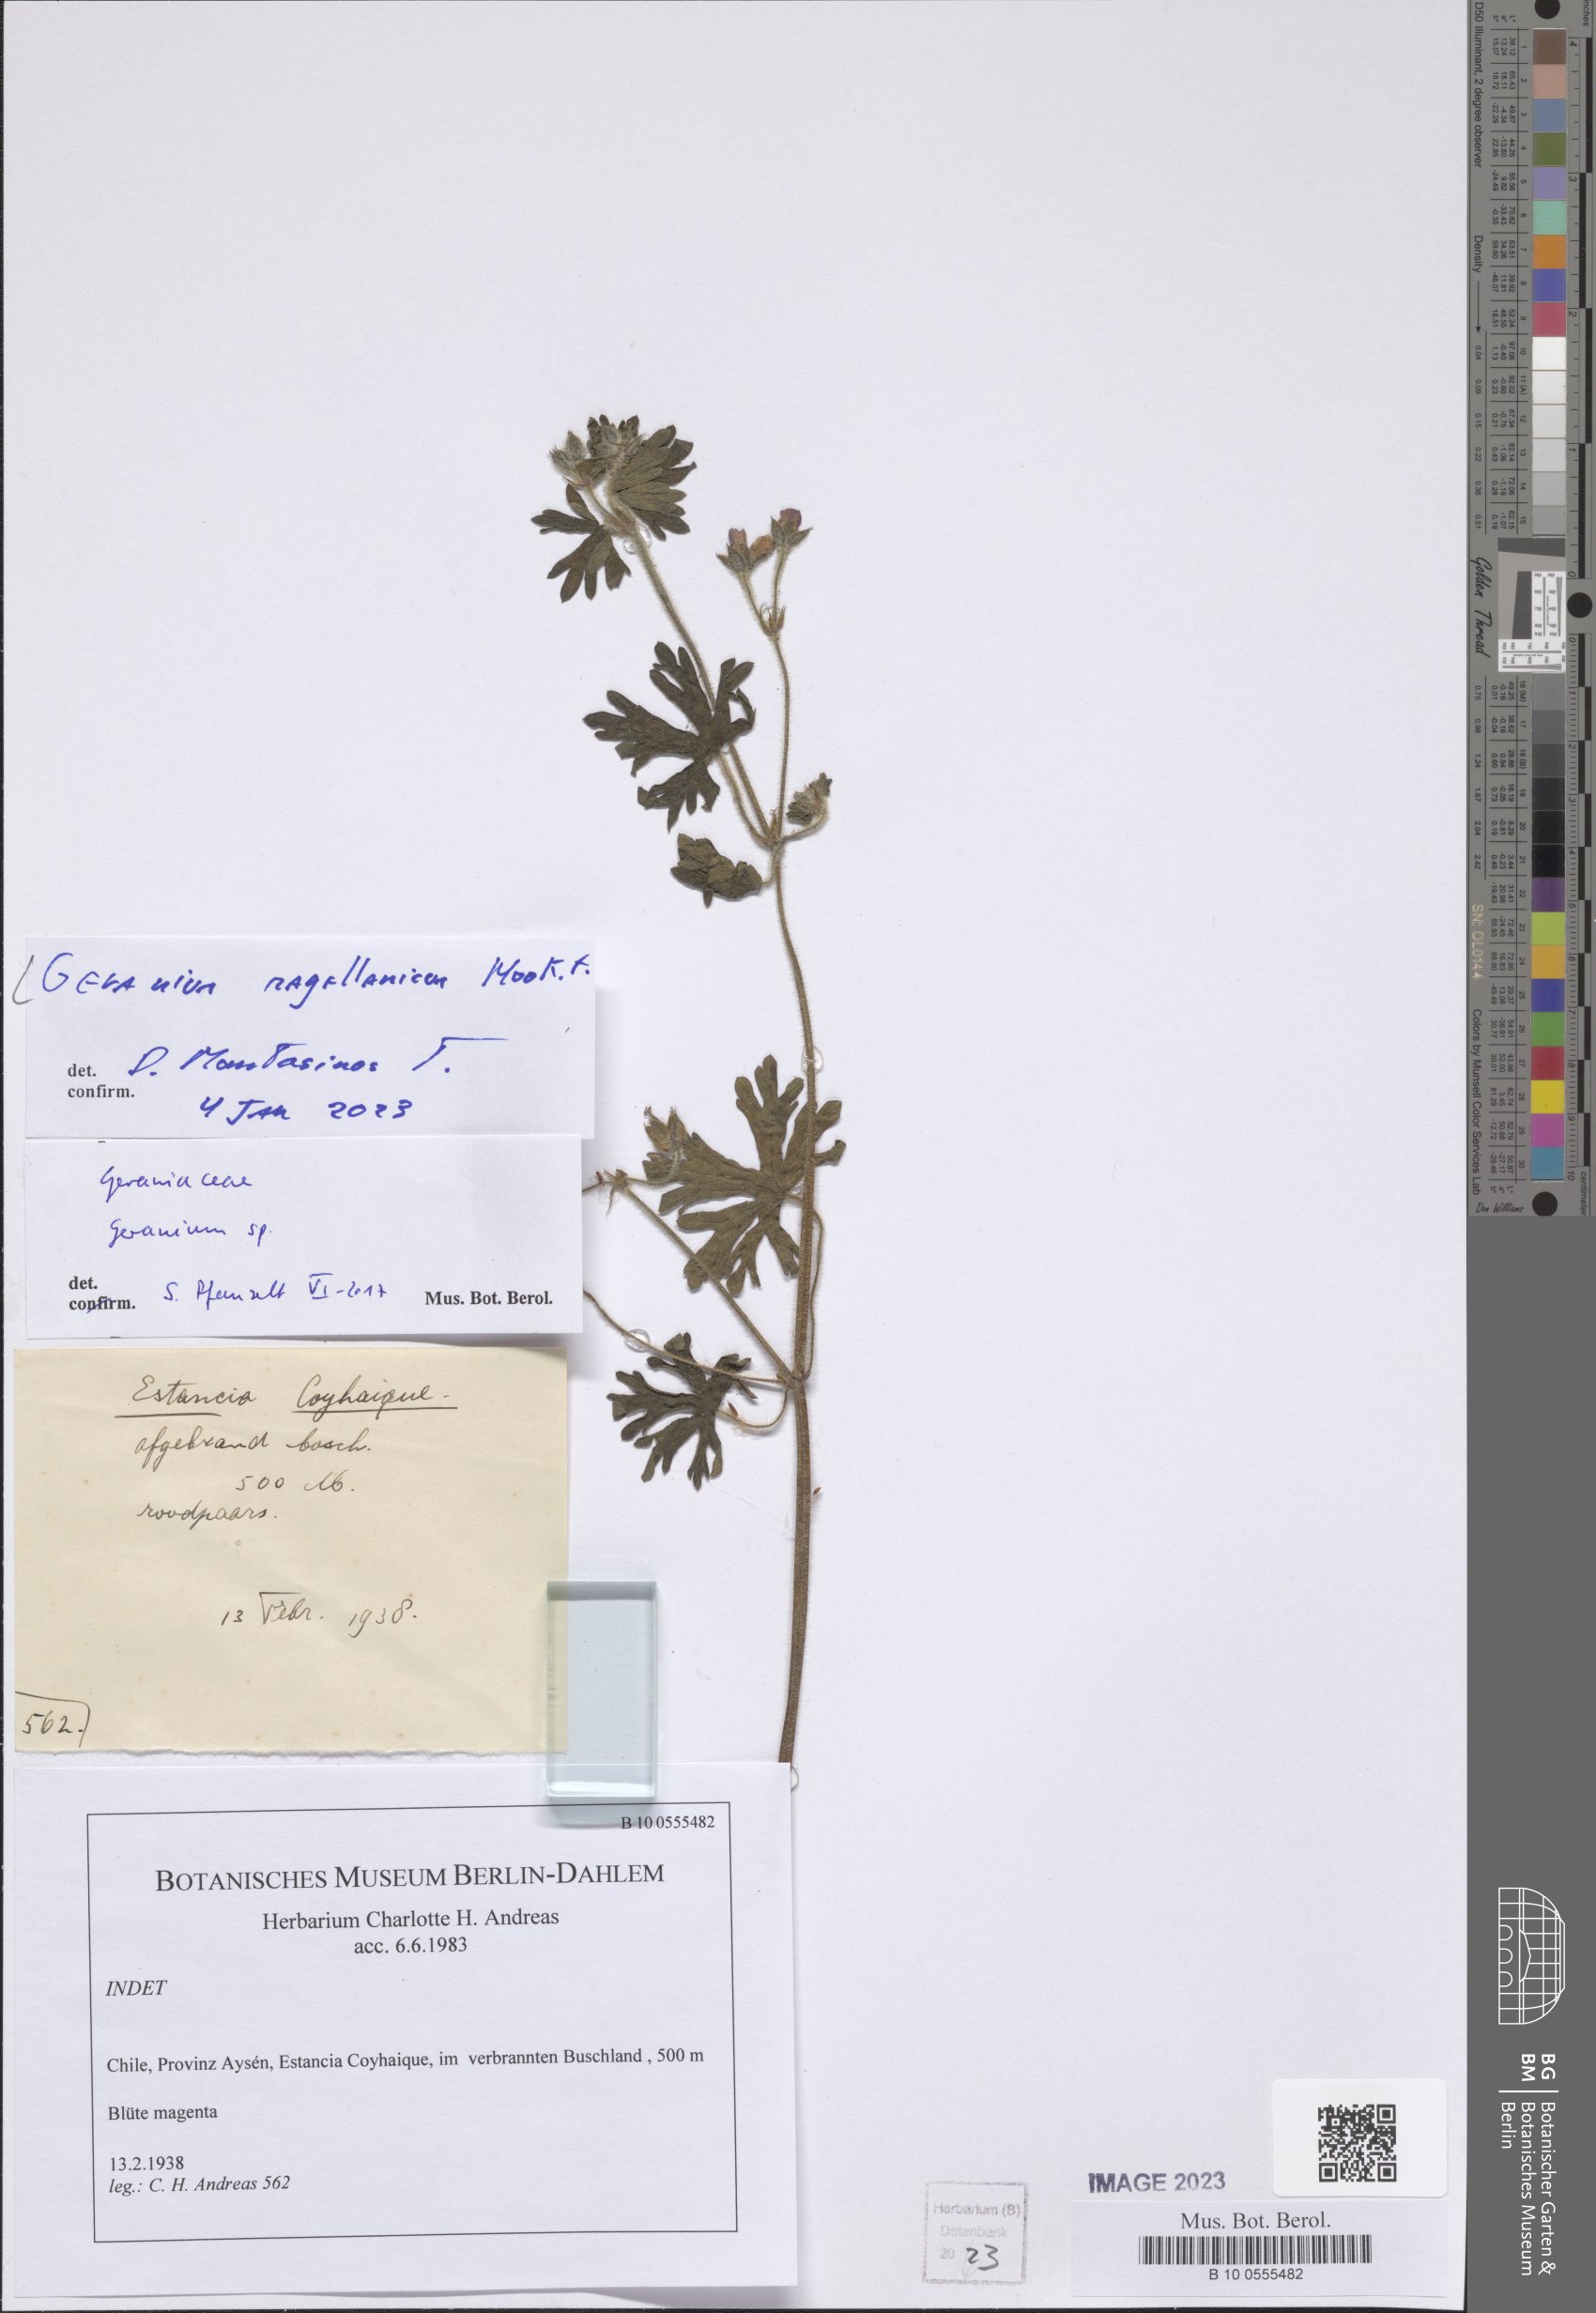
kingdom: Plantae
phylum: Tracheophyta
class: Magnoliopsida
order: Geraniales
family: Geraniaceae
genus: Geranium
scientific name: Geranium magellanicum
